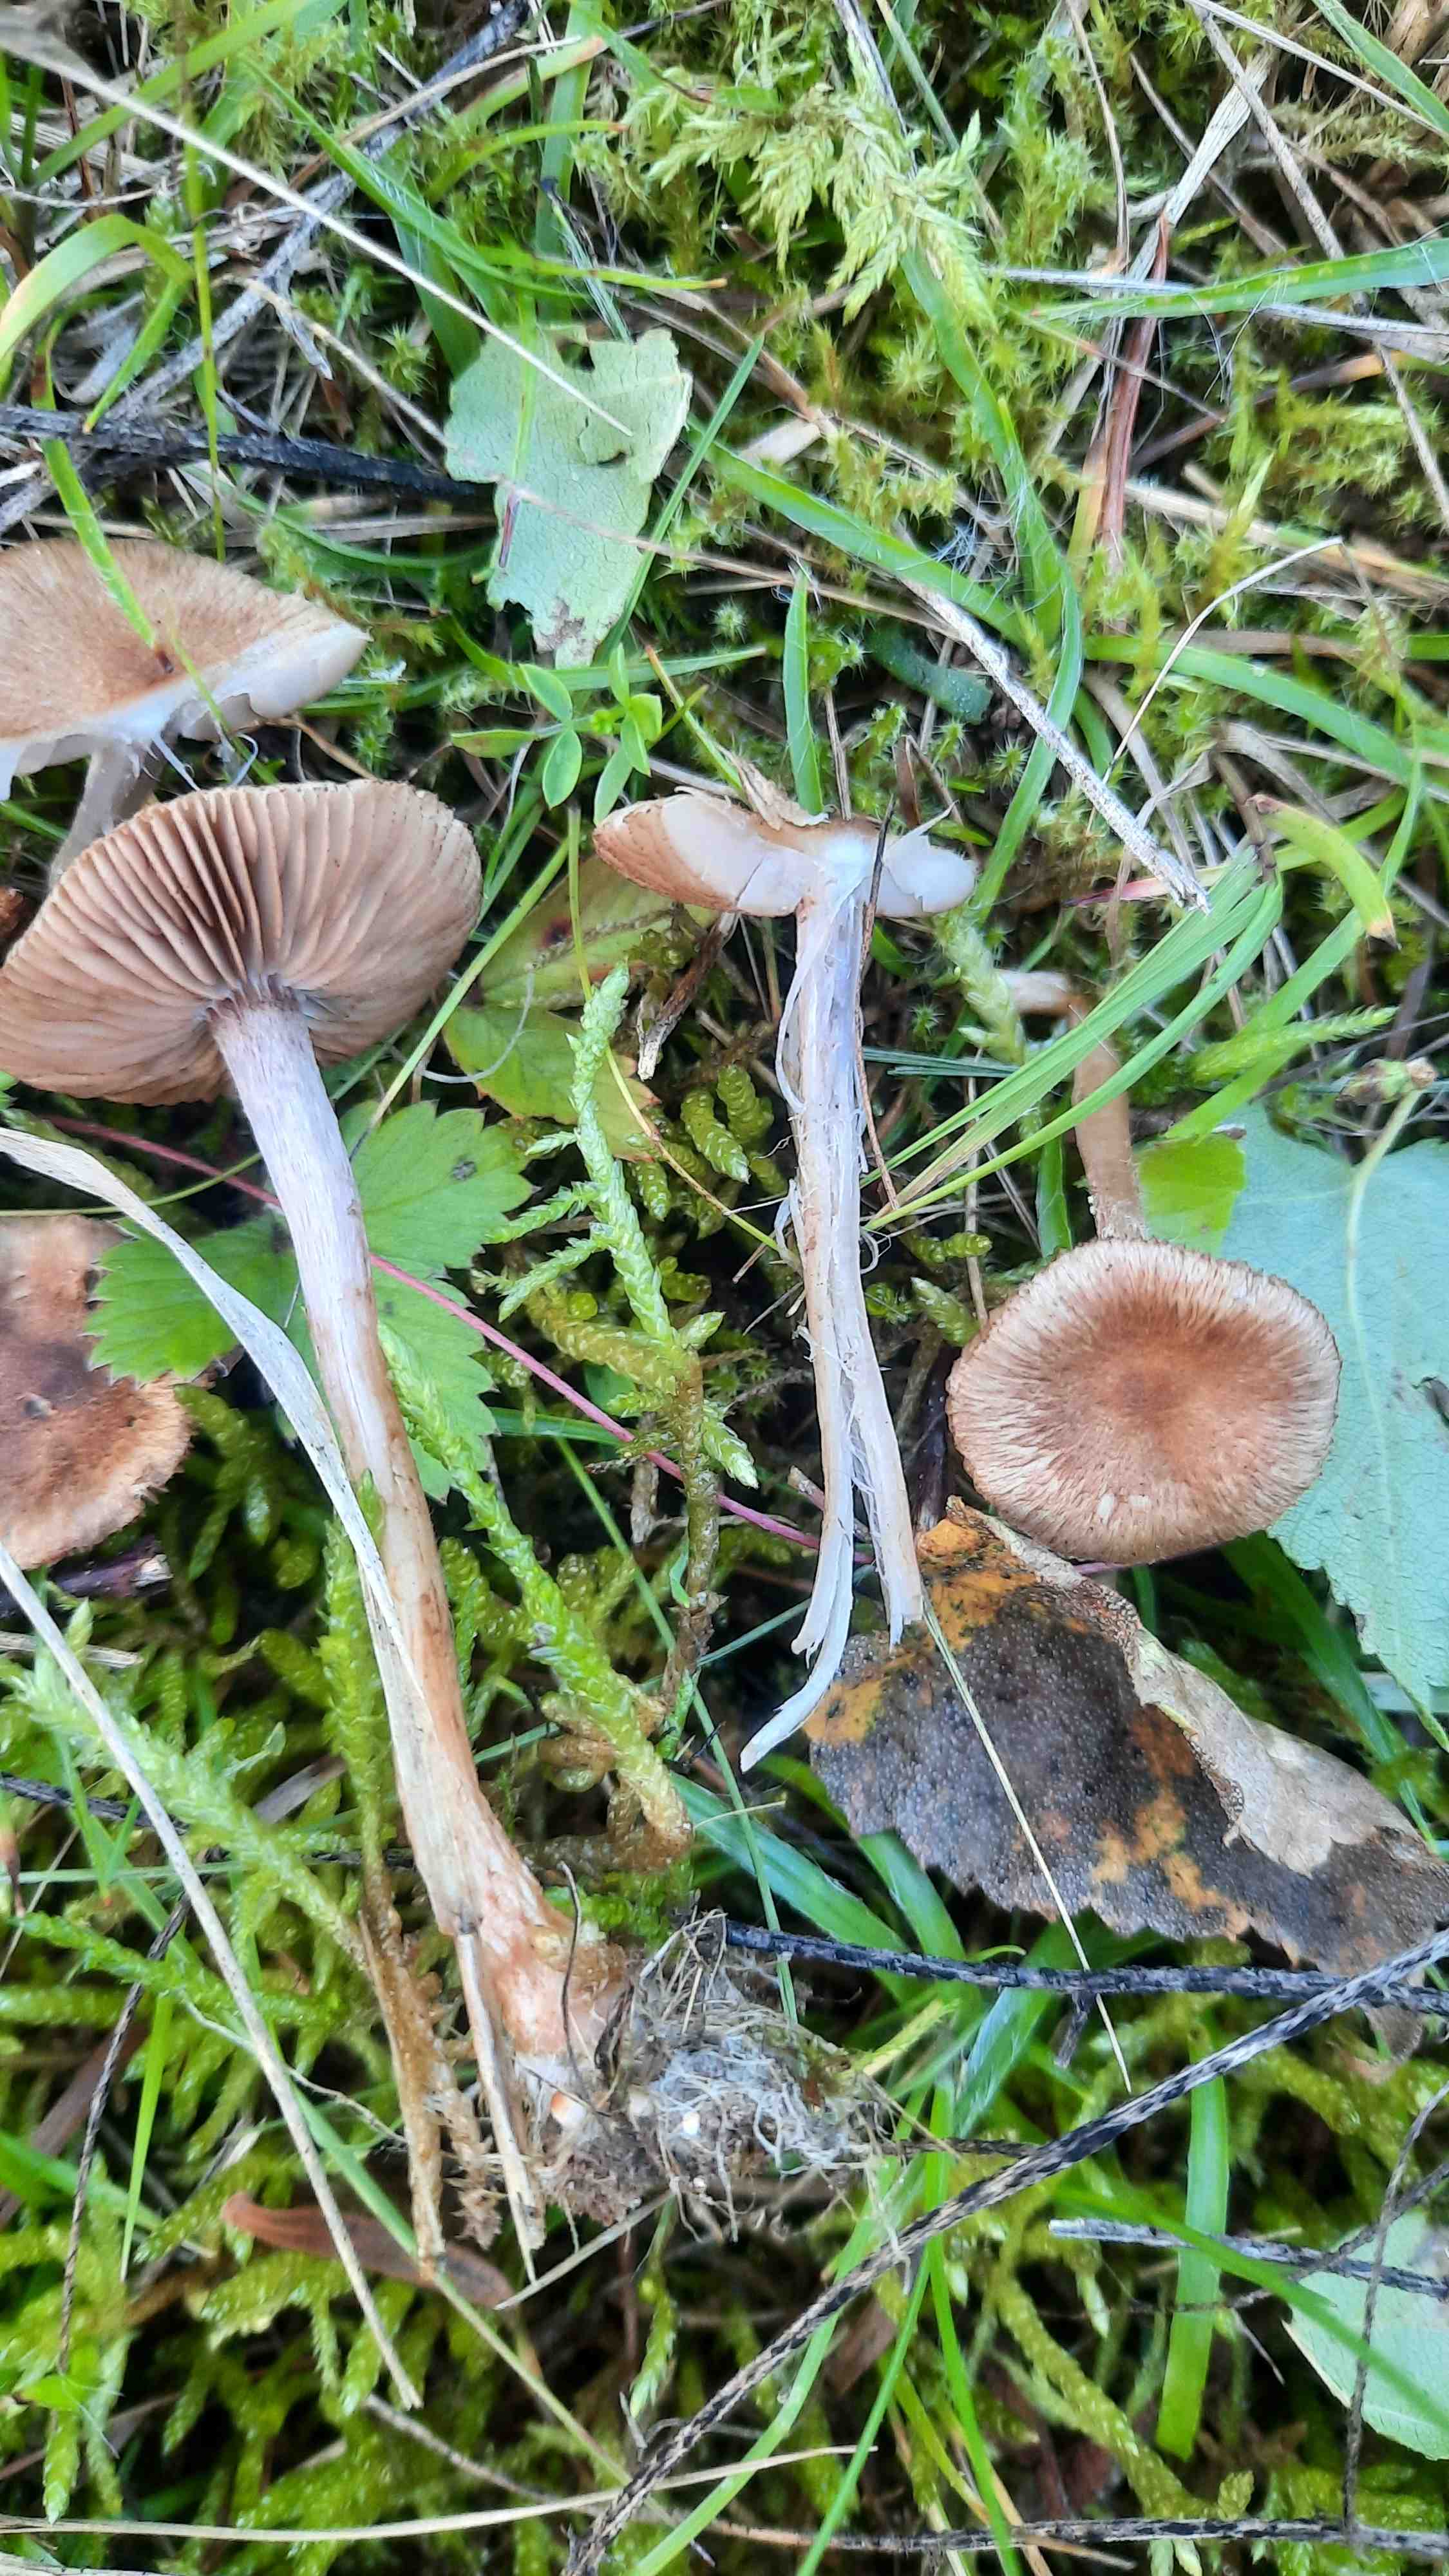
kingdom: Fungi
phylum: Basidiomycota
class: Agaricomycetes
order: Agaricales
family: Inocybaceae
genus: Inocybe
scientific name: Inocybe
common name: trævlhat
